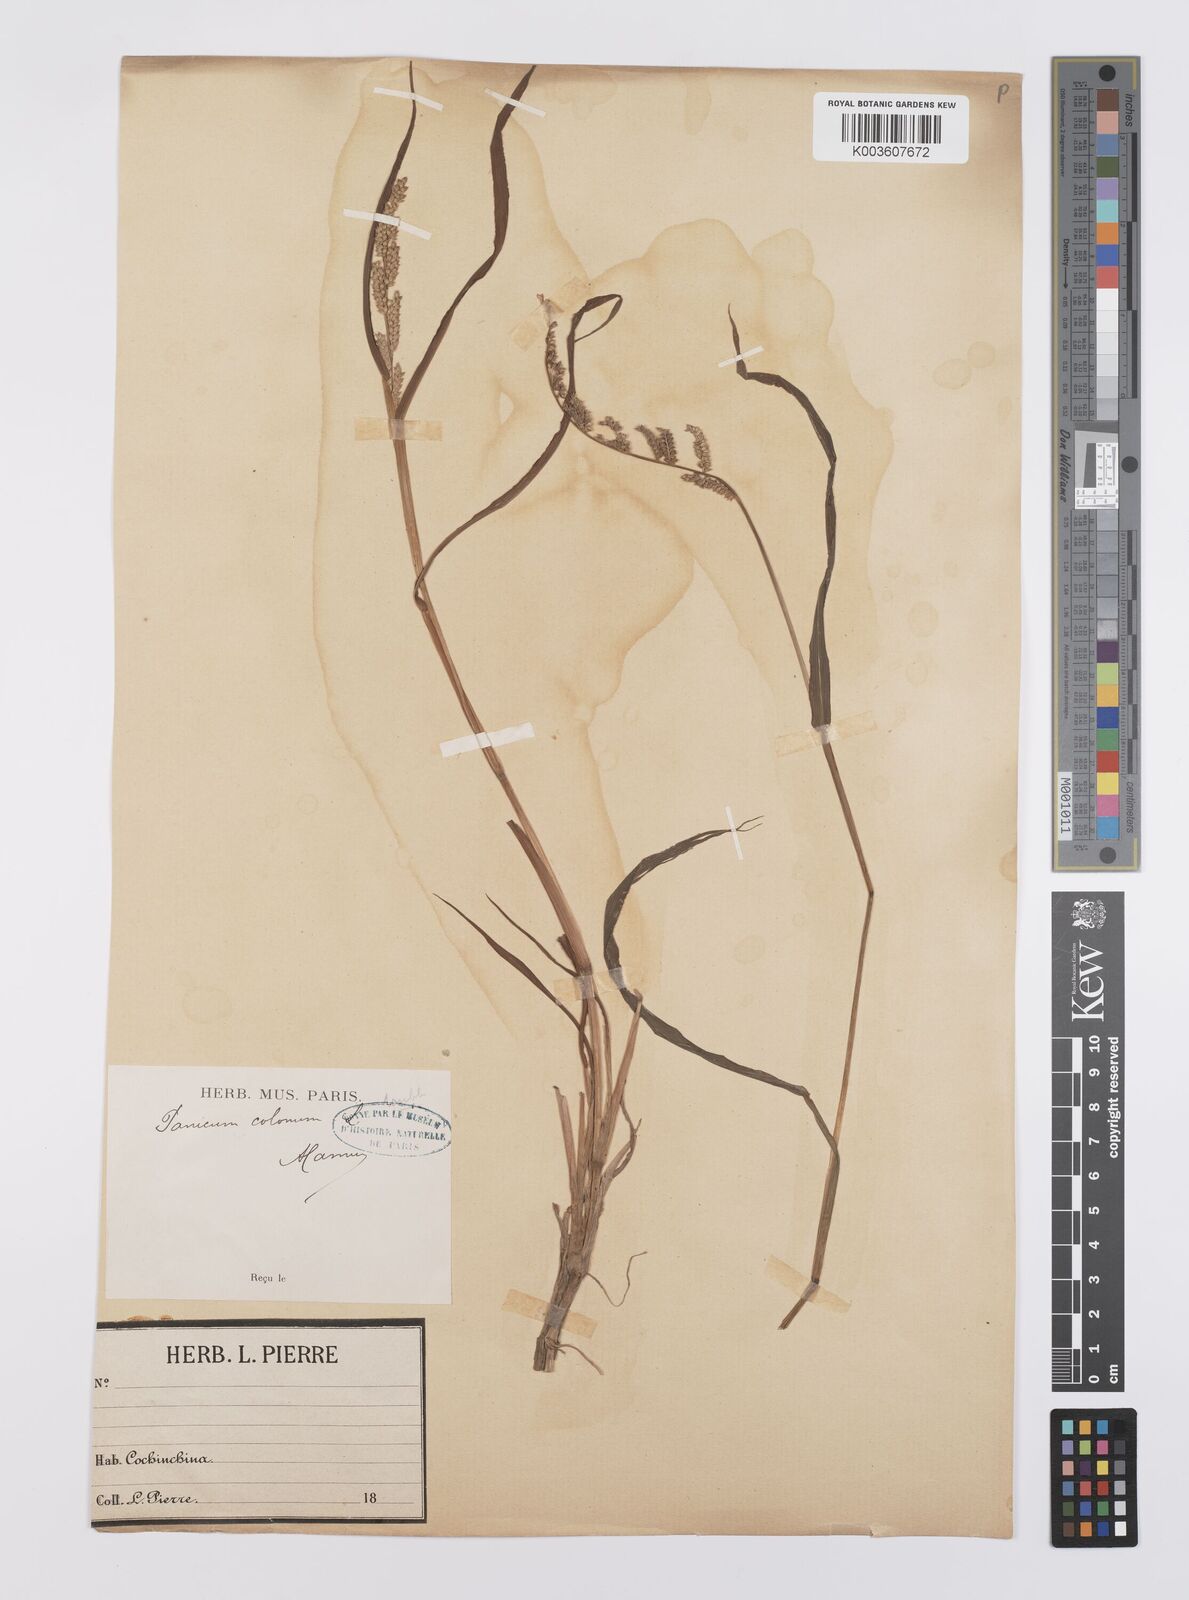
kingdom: Plantae
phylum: Tracheophyta
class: Liliopsida
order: Poales
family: Poaceae
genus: Echinochloa
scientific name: Echinochloa colonum
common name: Jungle rice
